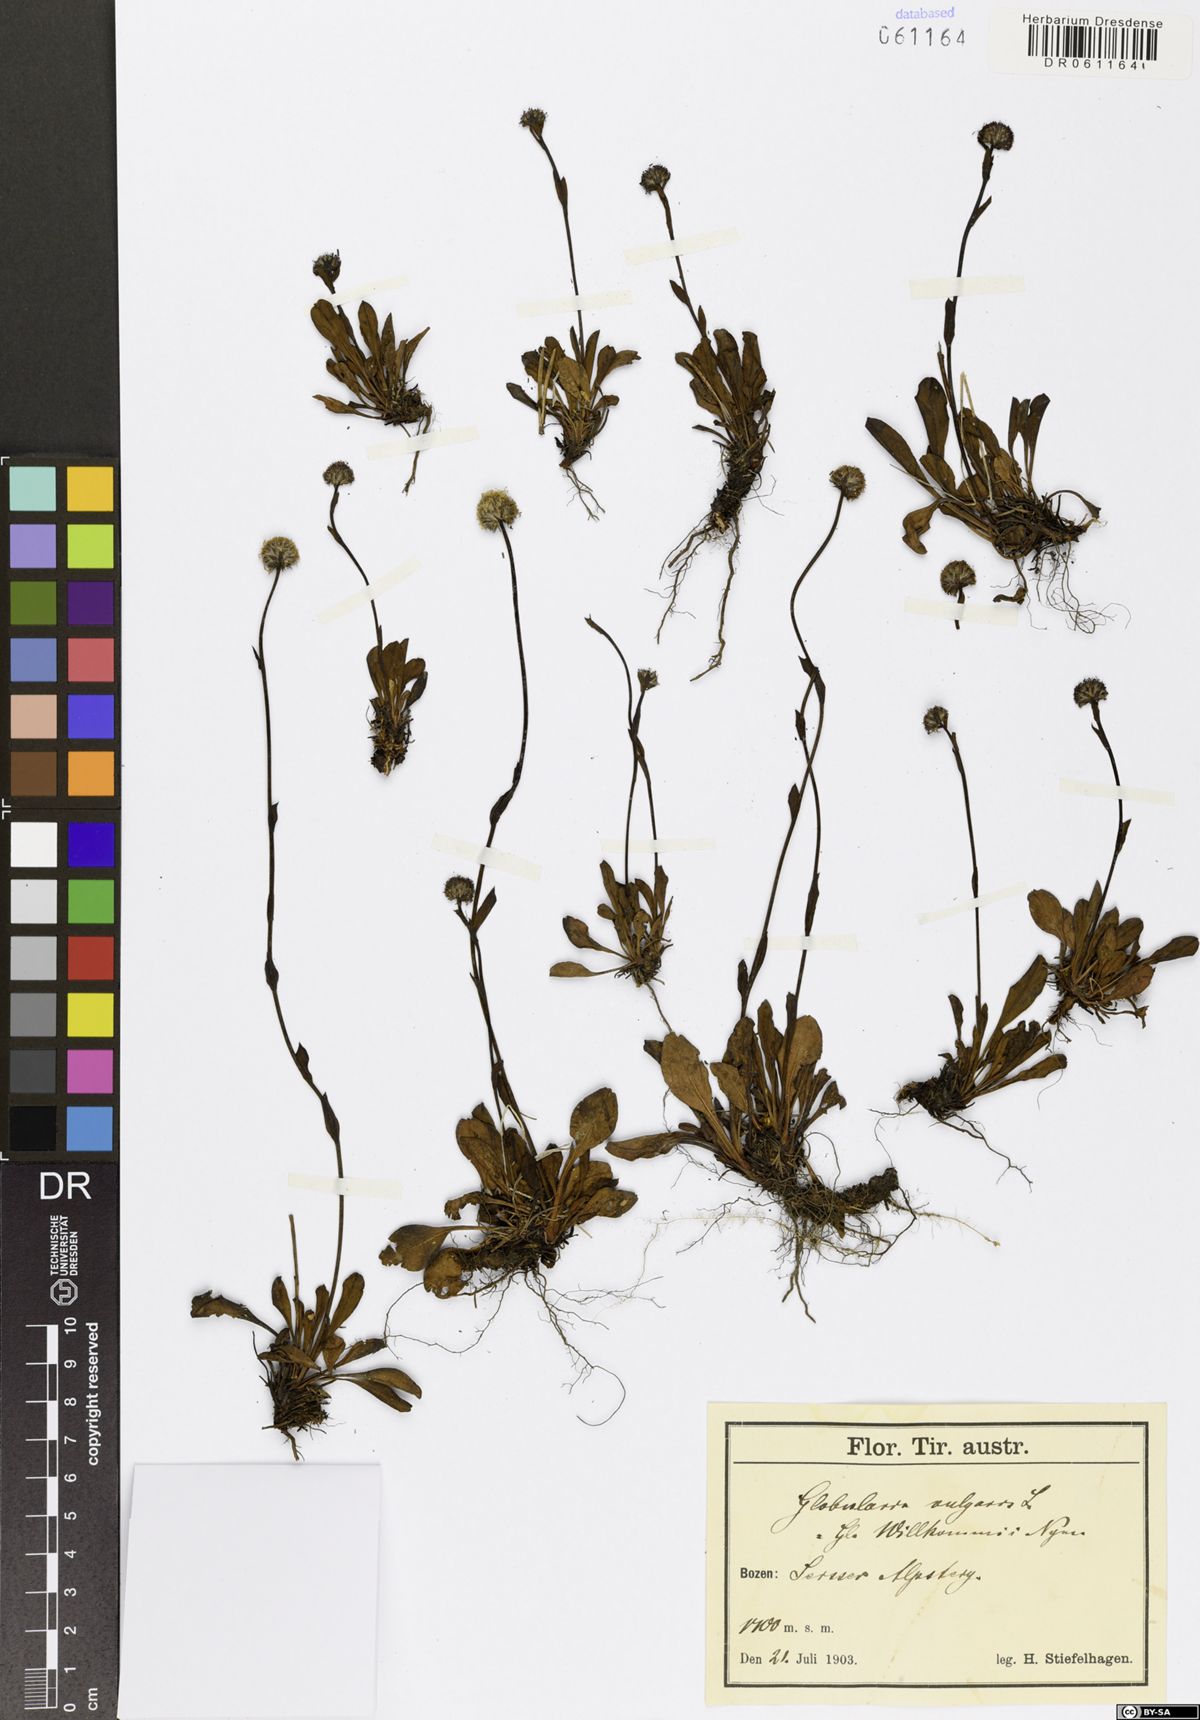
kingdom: Plantae
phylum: Tracheophyta
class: Magnoliopsida
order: Lamiales
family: Plantaginaceae
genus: Globularia
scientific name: Globularia vulgaris
